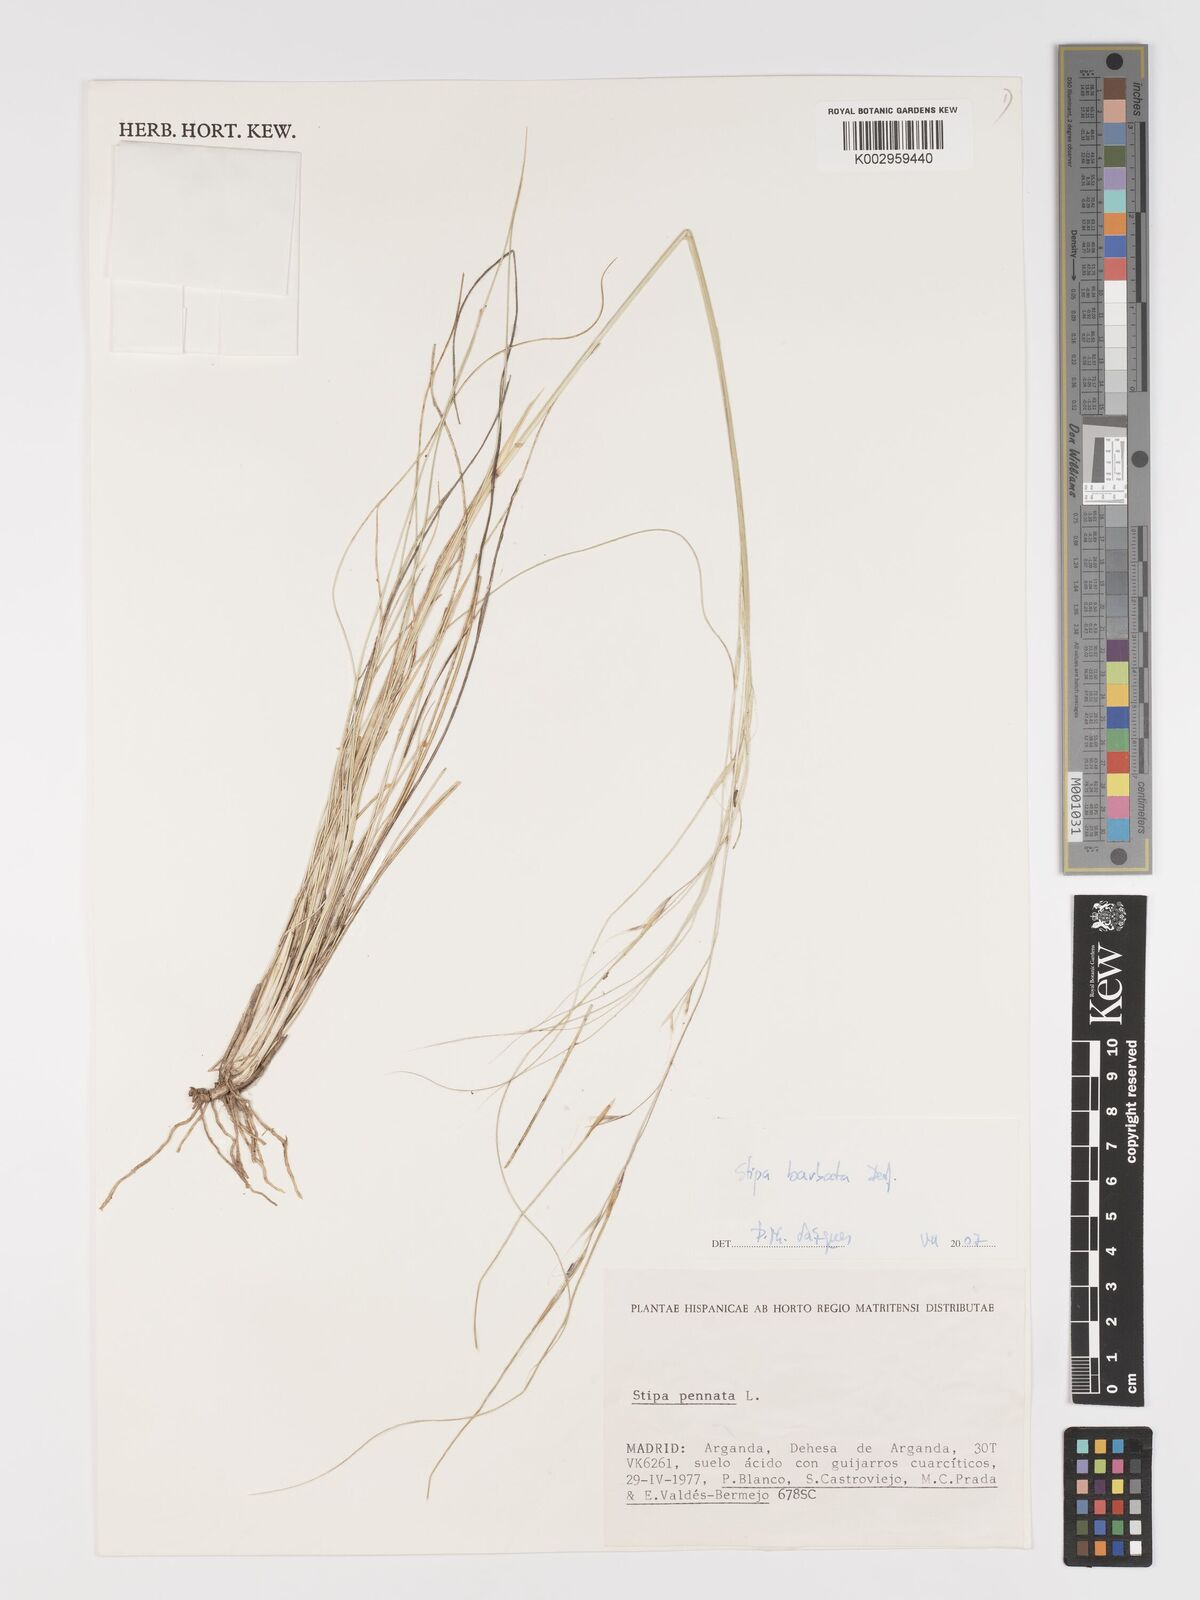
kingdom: Plantae
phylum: Tracheophyta
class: Liliopsida
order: Poales
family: Poaceae
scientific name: Poaceae
